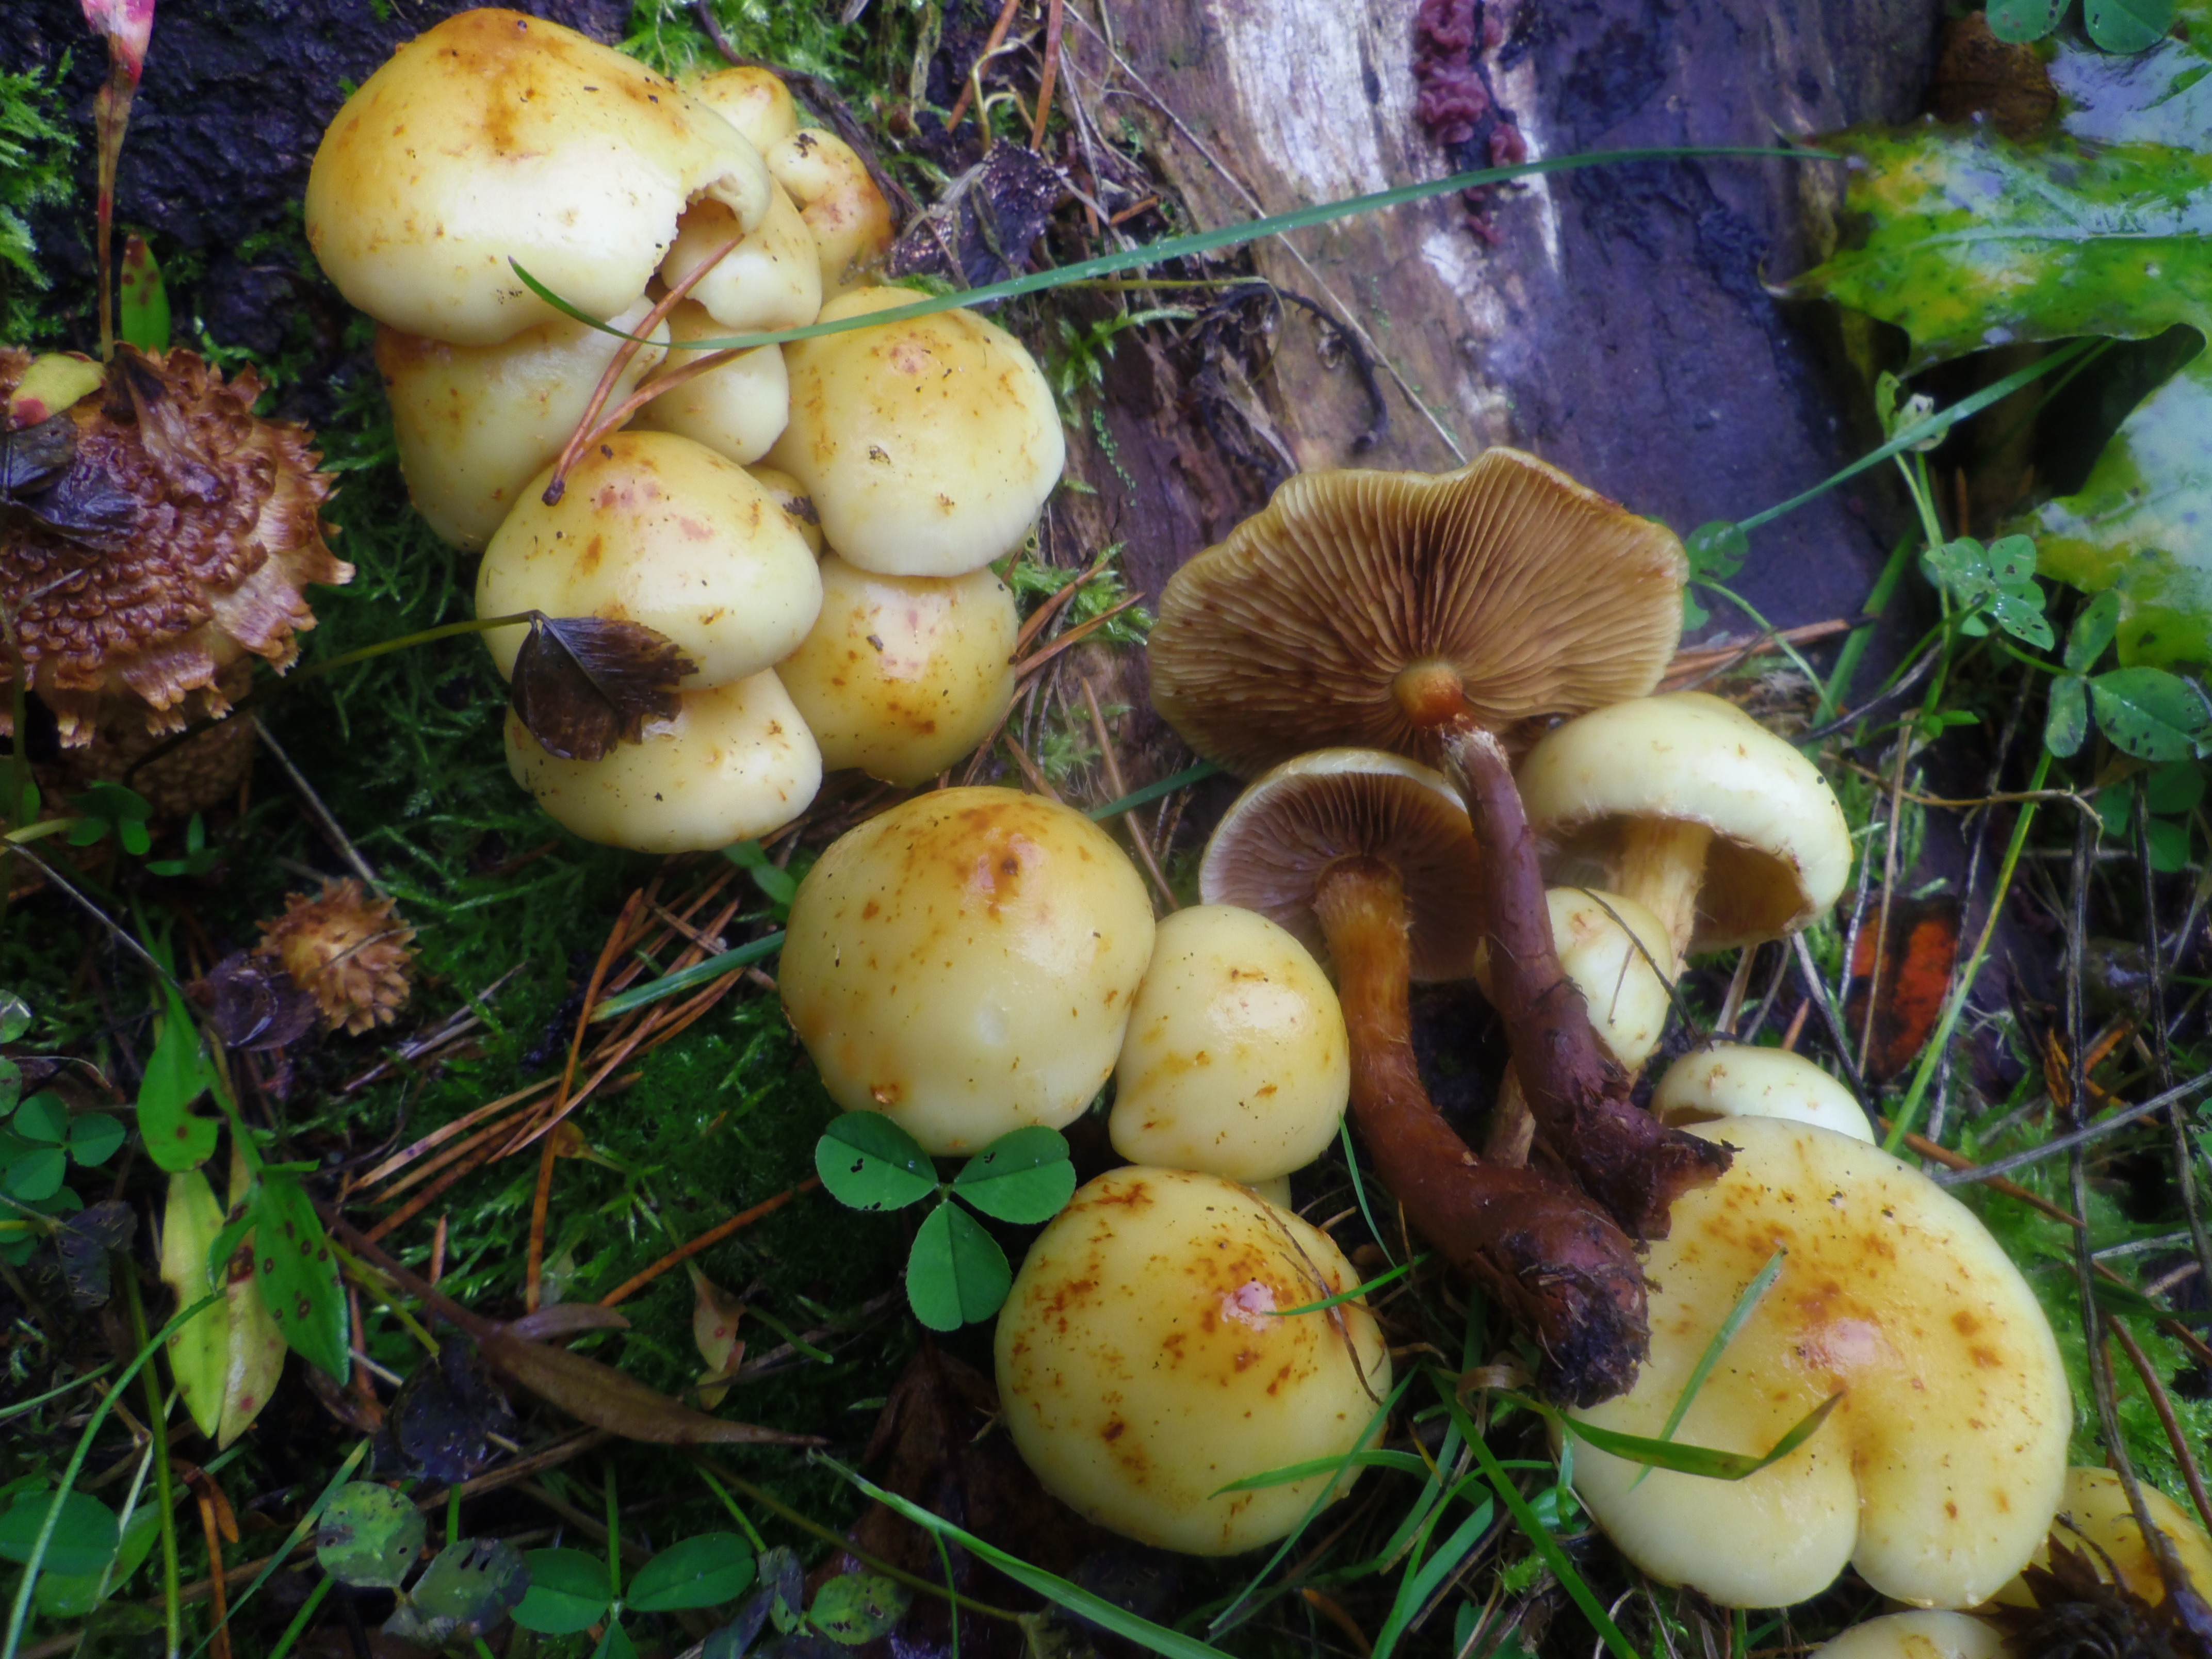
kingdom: Fungi
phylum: Basidiomycota
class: Agaricomycetes
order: Agaricales
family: Hymenogastraceae
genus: Flammula
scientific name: Flammula alnicola
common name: Alder scalycap
